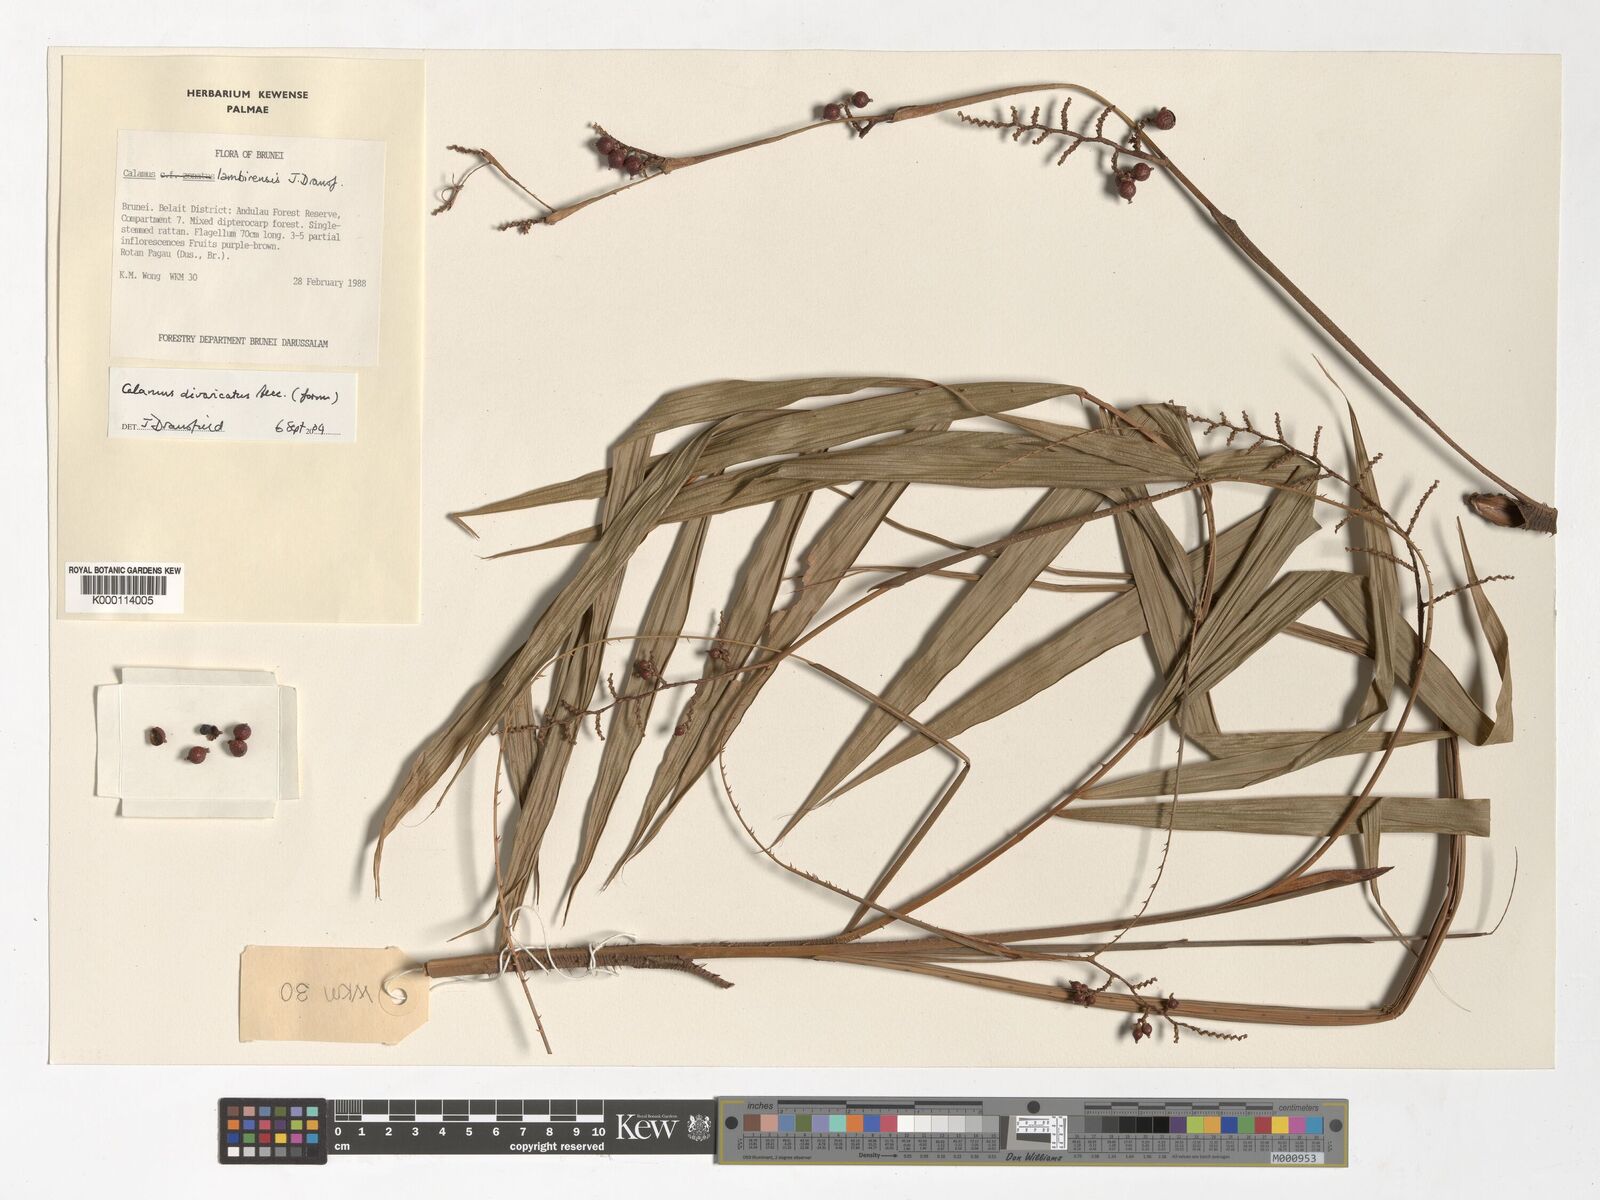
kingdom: Plantae
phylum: Tracheophyta
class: Liliopsida
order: Arecales
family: Arecaceae
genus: Calamus
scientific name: Calamus lambirensis
